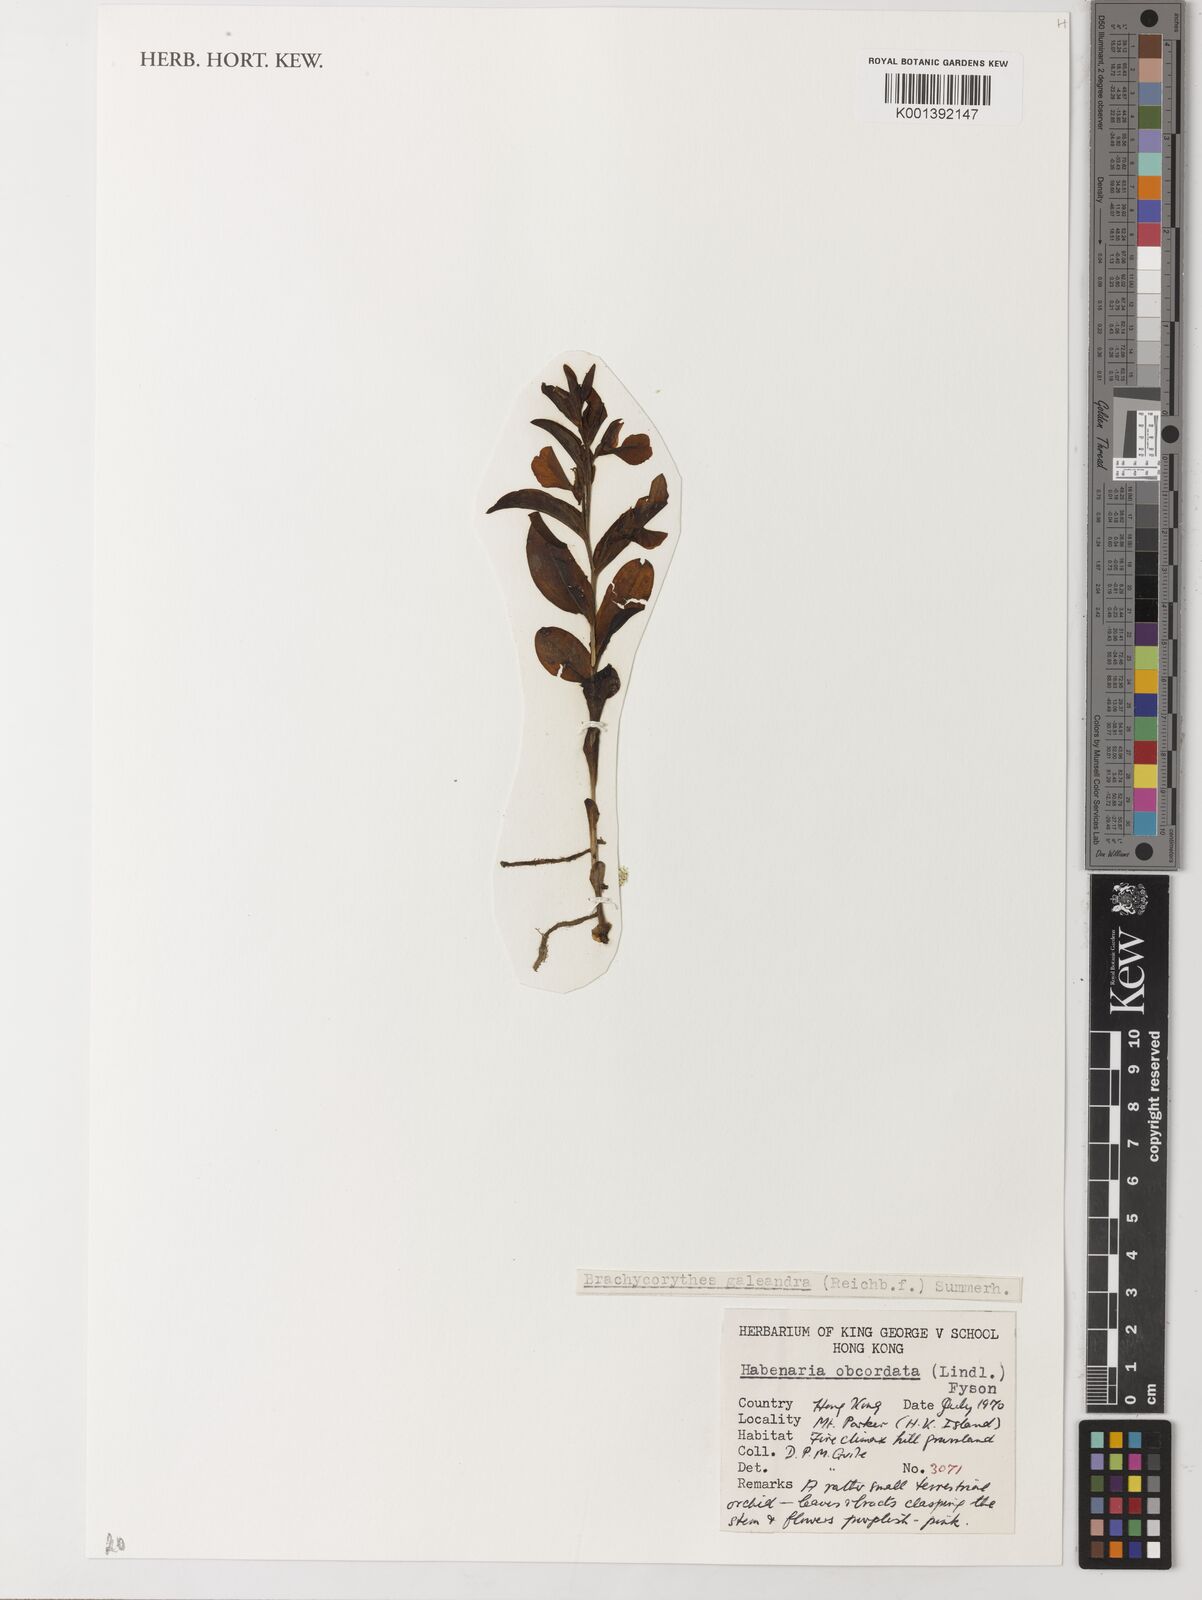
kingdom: Plantae
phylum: Tracheophyta
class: Liliopsida
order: Asparagales
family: Orchidaceae
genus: Brachycorythis
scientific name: Brachycorythis obcordata
